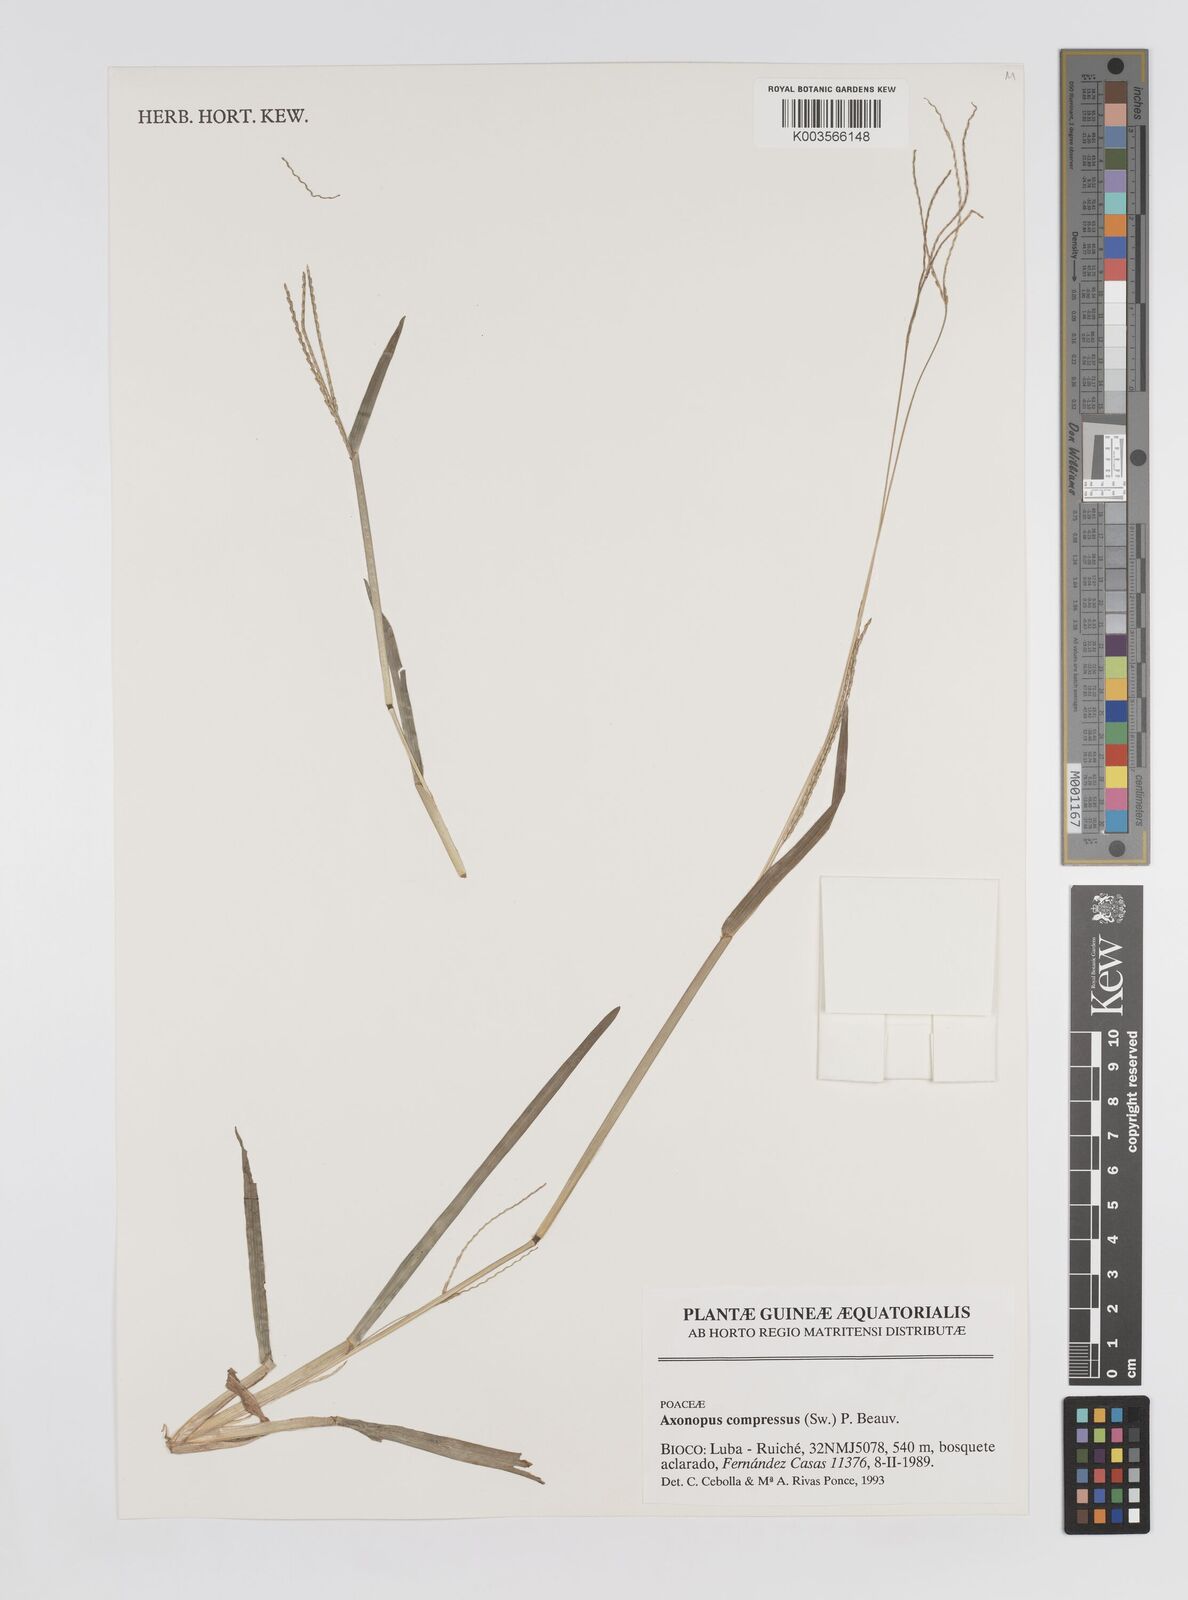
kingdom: Plantae
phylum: Tracheophyta
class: Liliopsida
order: Poales
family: Poaceae
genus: Axonopus
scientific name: Axonopus compressus
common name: American carpet grass
